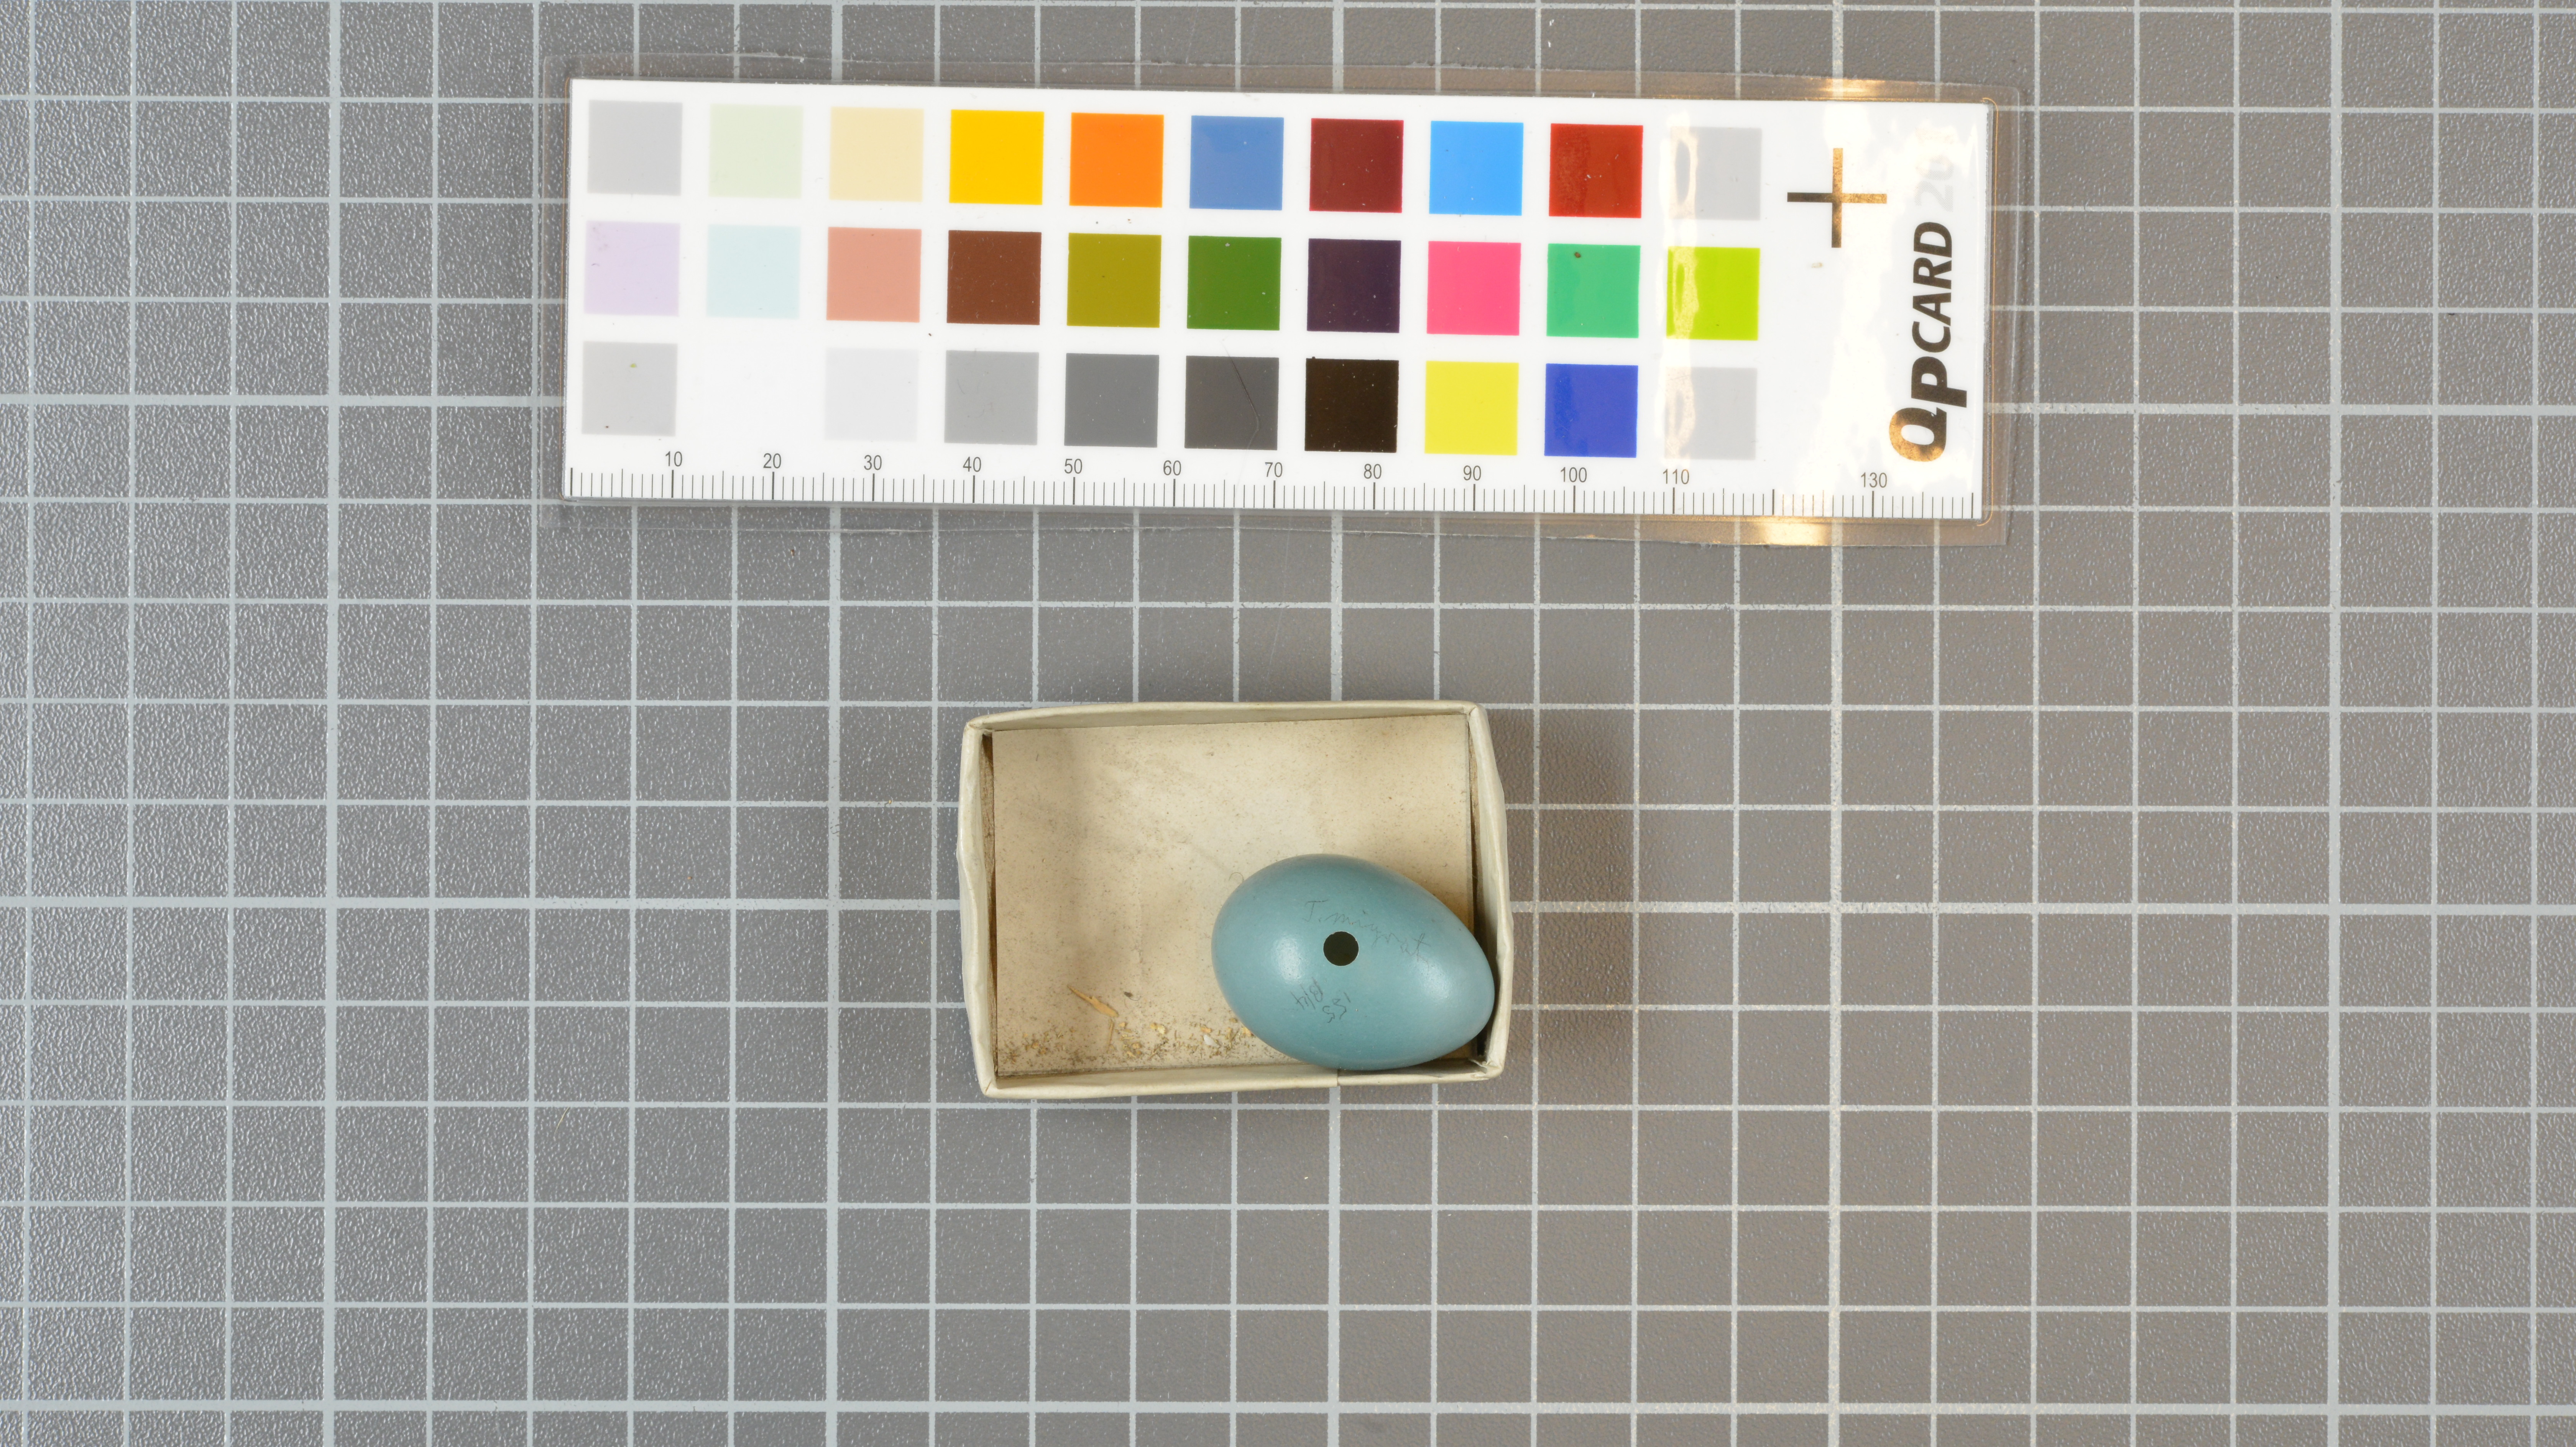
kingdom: Animalia
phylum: Chordata
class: Aves
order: Passeriformes
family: Turdidae
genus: Turdus
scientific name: Turdus migratorius
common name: American robin
